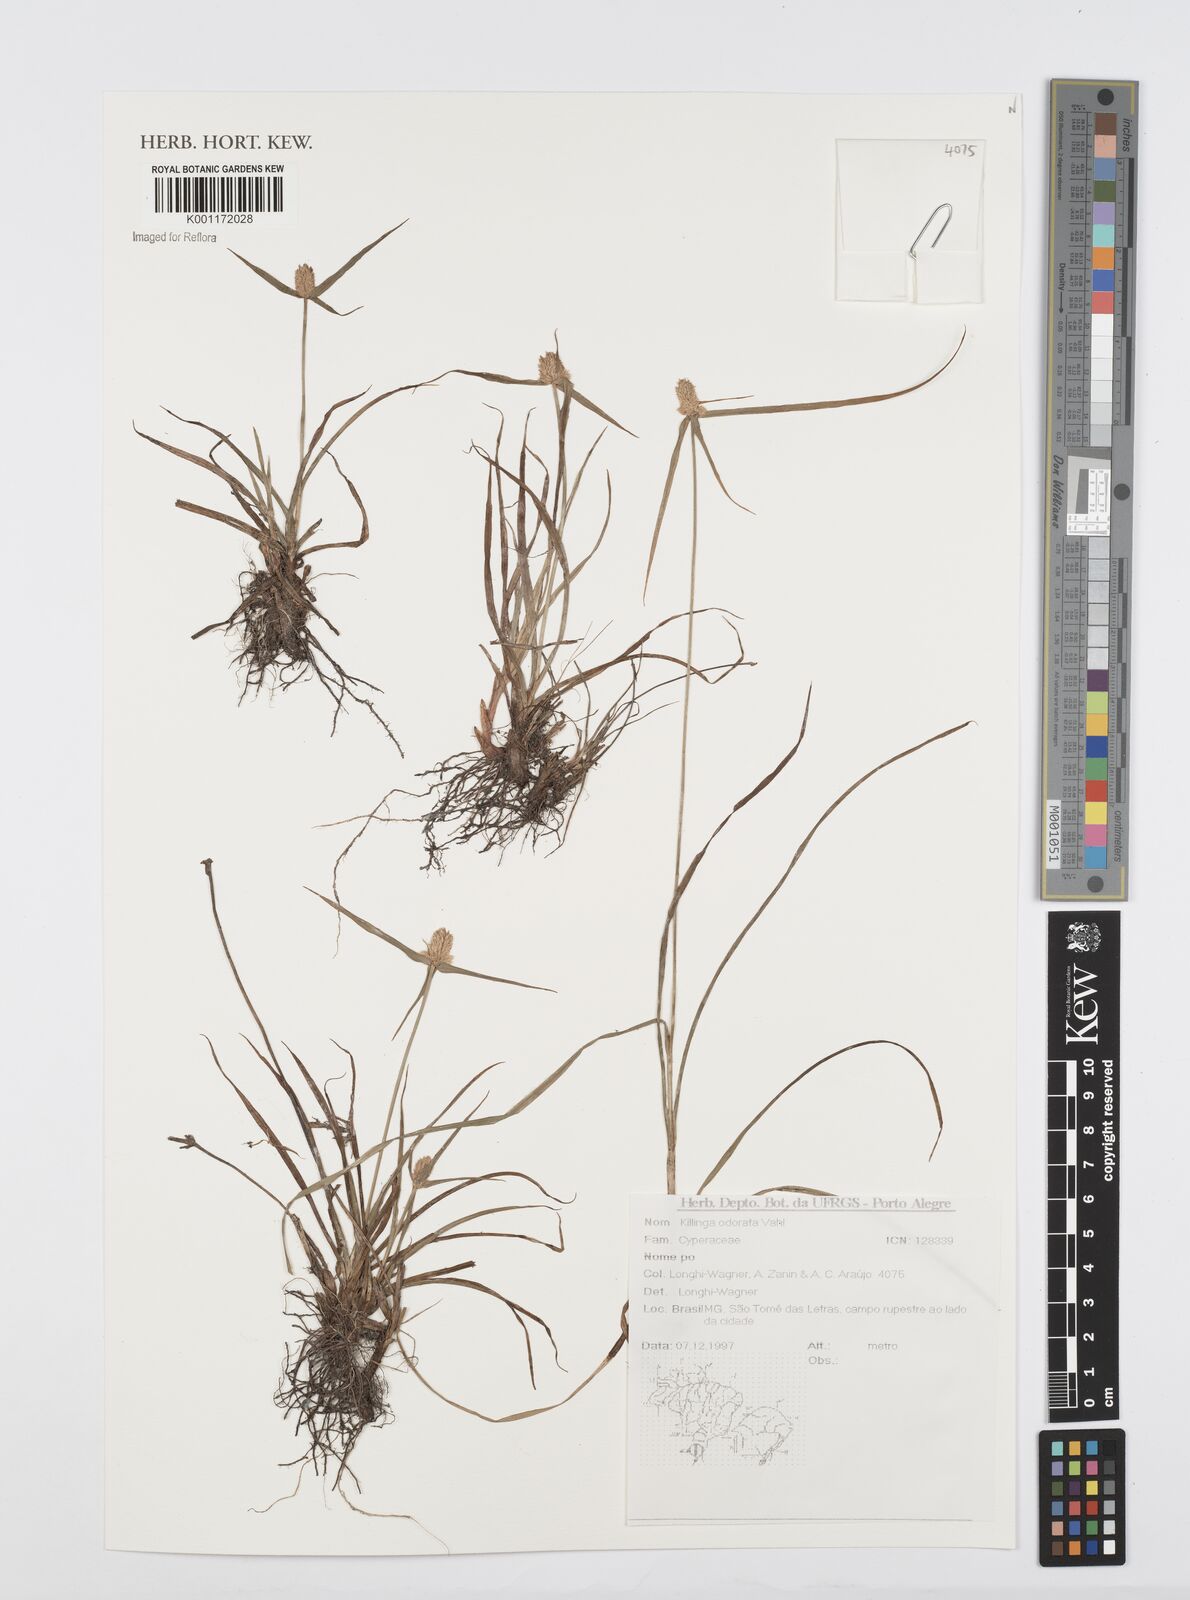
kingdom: Plantae
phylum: Tracheophyta
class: Liliopsida
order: Poales
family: Cyperaceae
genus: Cyperus
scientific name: Cyperus
